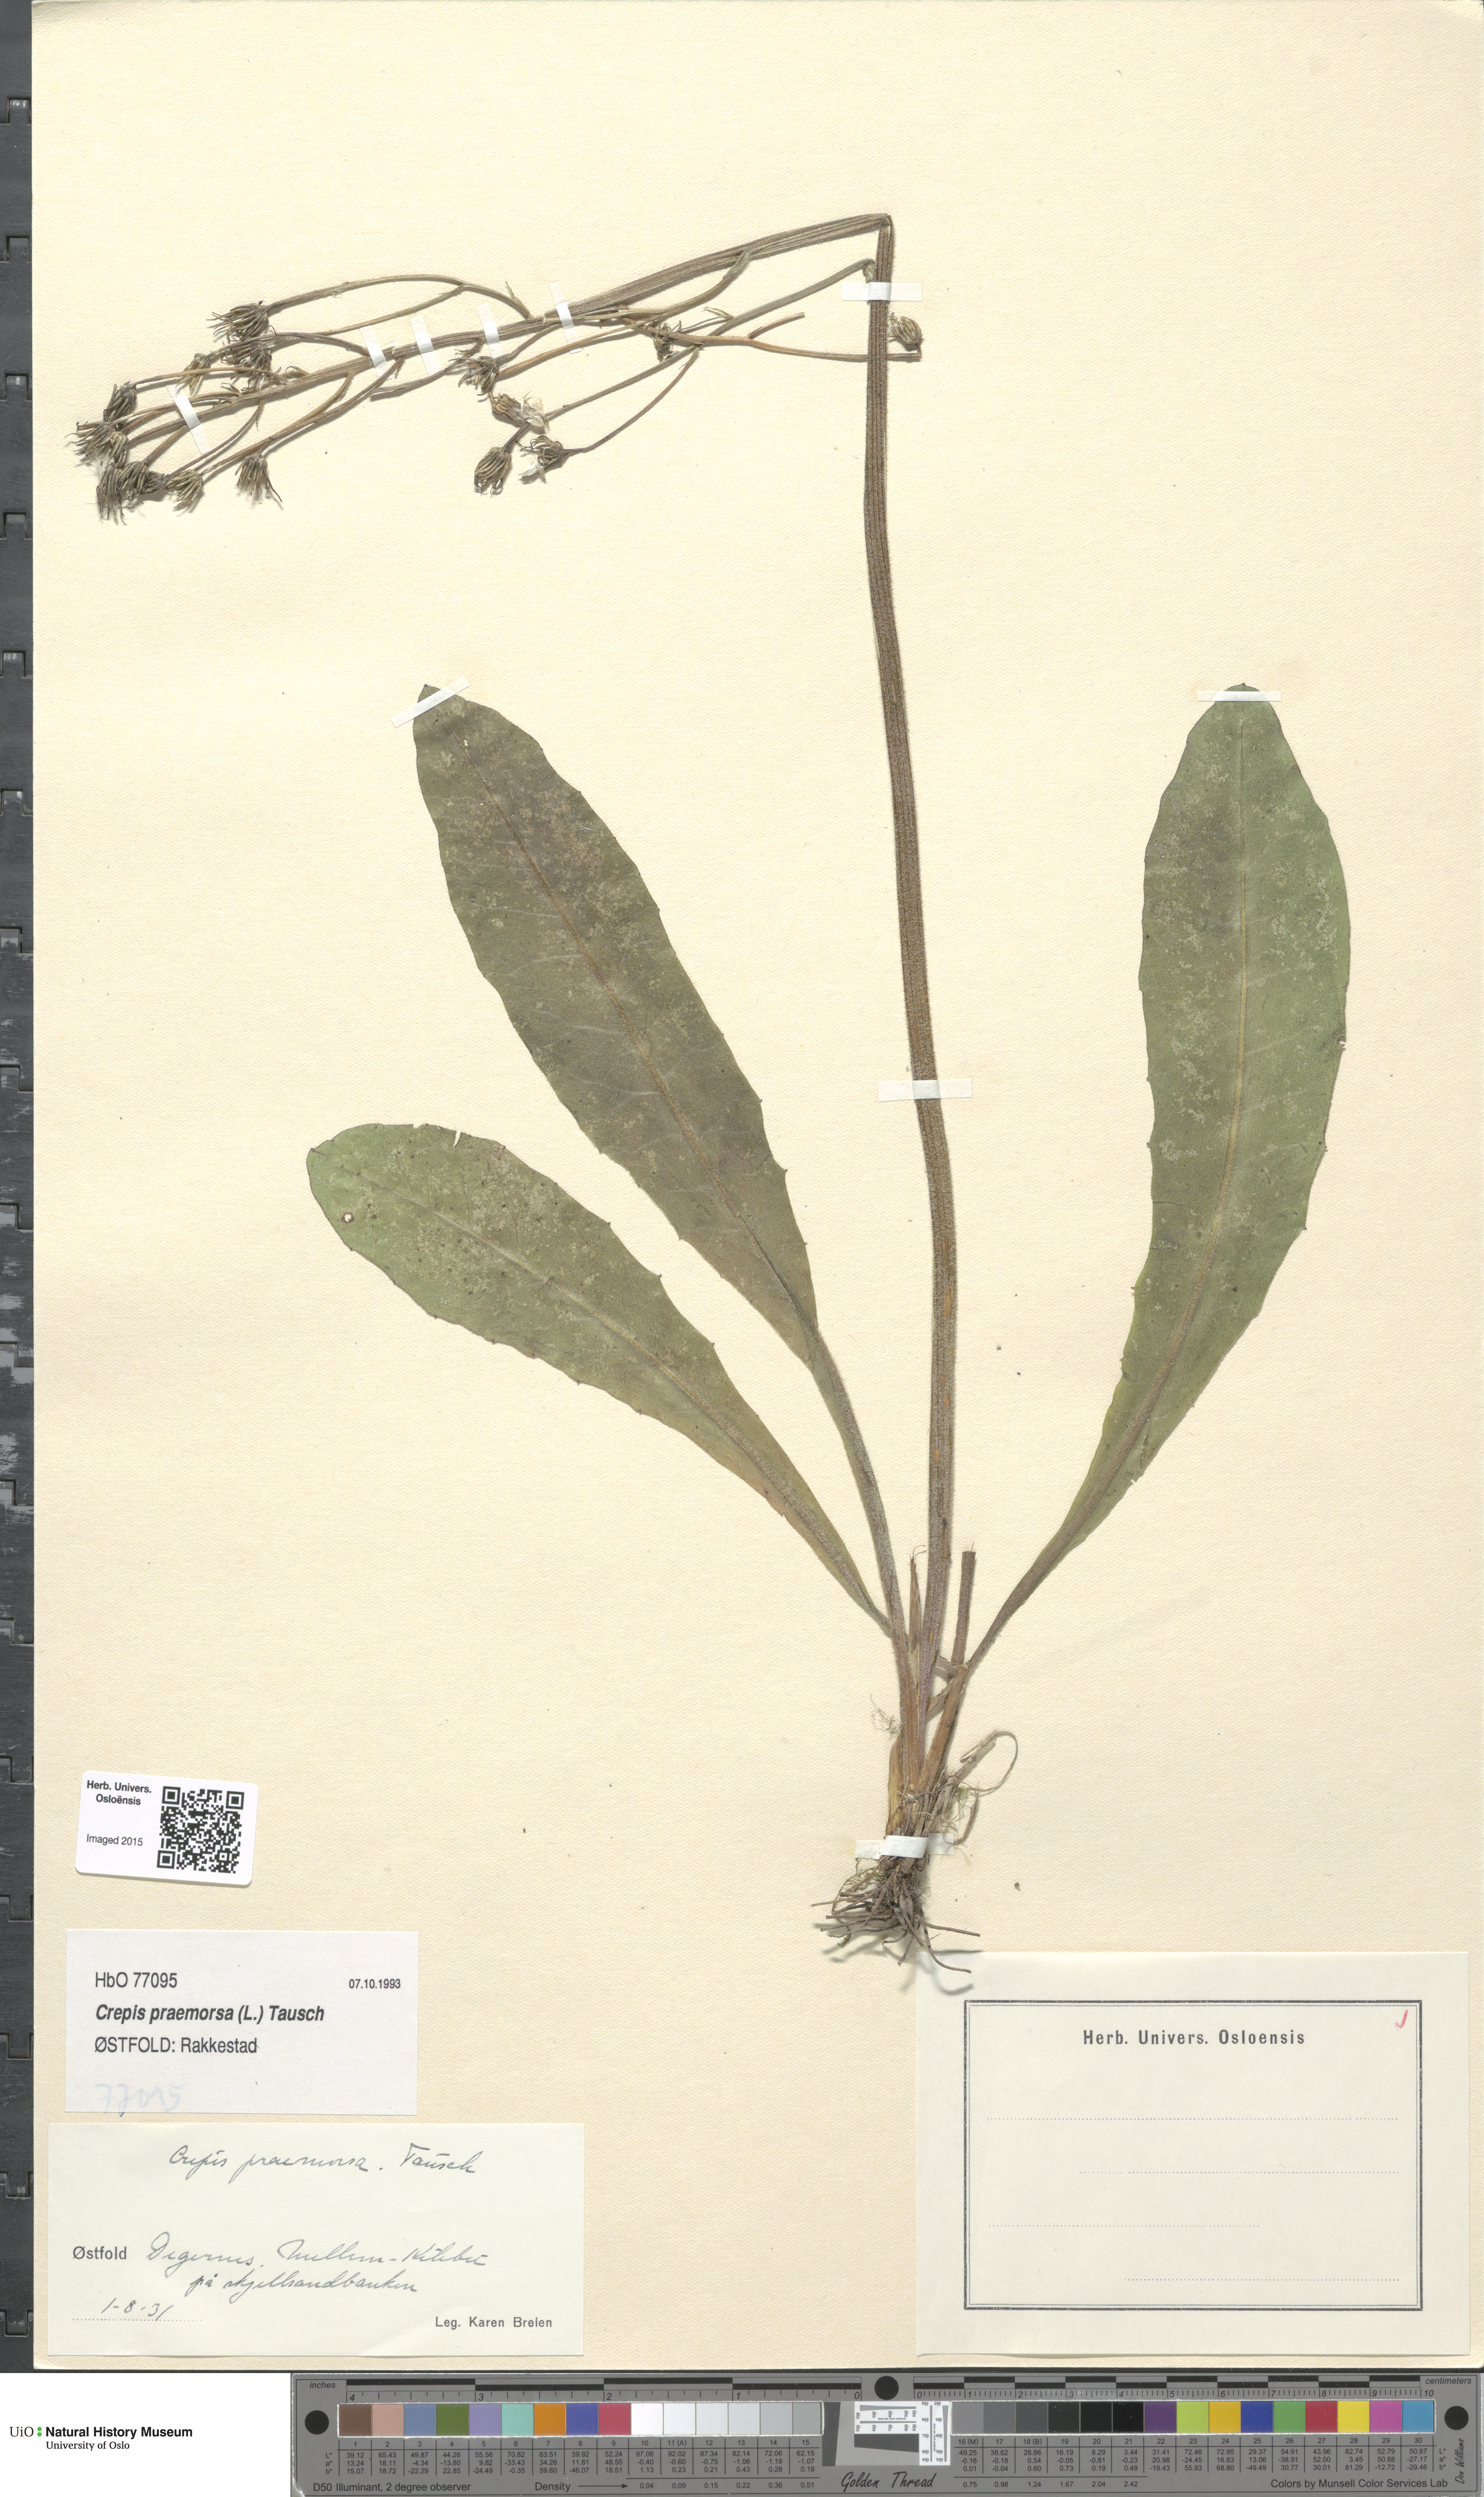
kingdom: Plantae
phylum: Tracheophyta
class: Magnoliopsida
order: Asterales
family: Asteraceae
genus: Crepis
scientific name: Crepis praemorsa
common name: Leafless hawk's-beard
